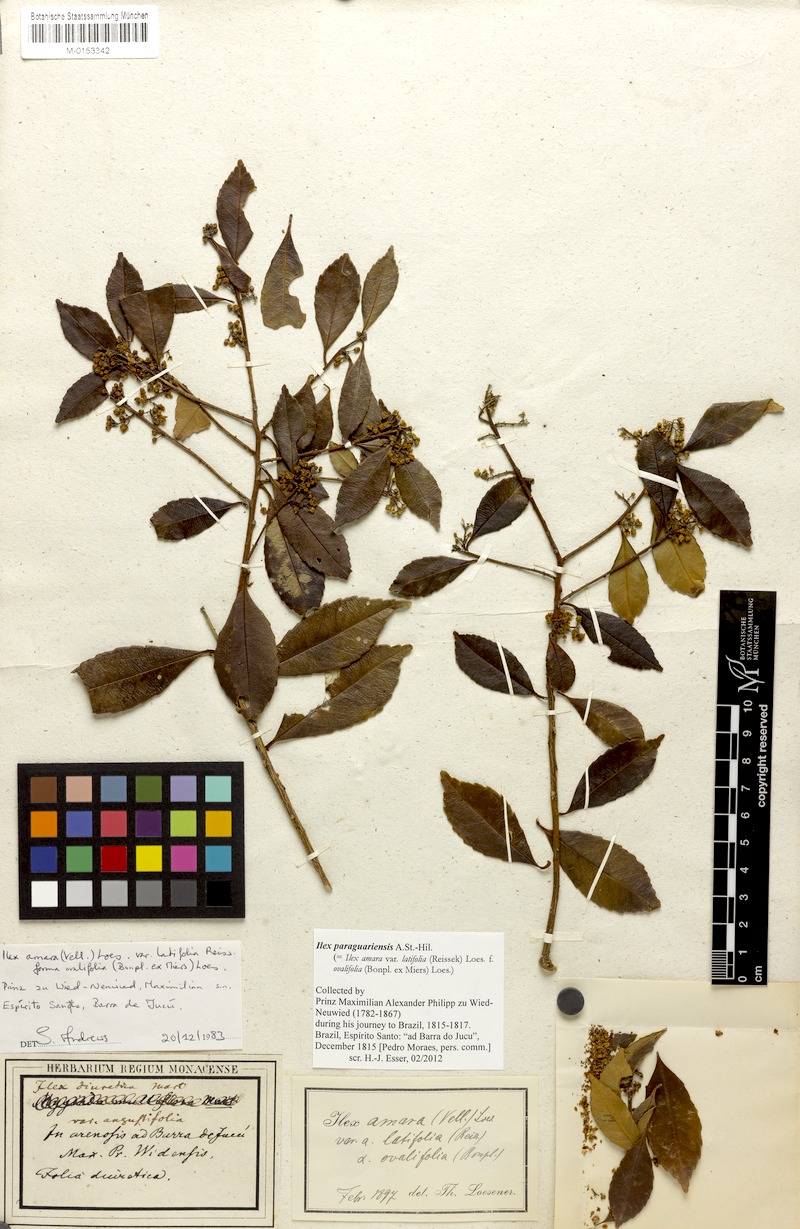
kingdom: Plantae
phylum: Tracheophyta
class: Magnoliopsida
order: Aquifoliales
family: Aquifoliaceae
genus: Ilex
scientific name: Ilex paraguariensis
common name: Paraguay tea
